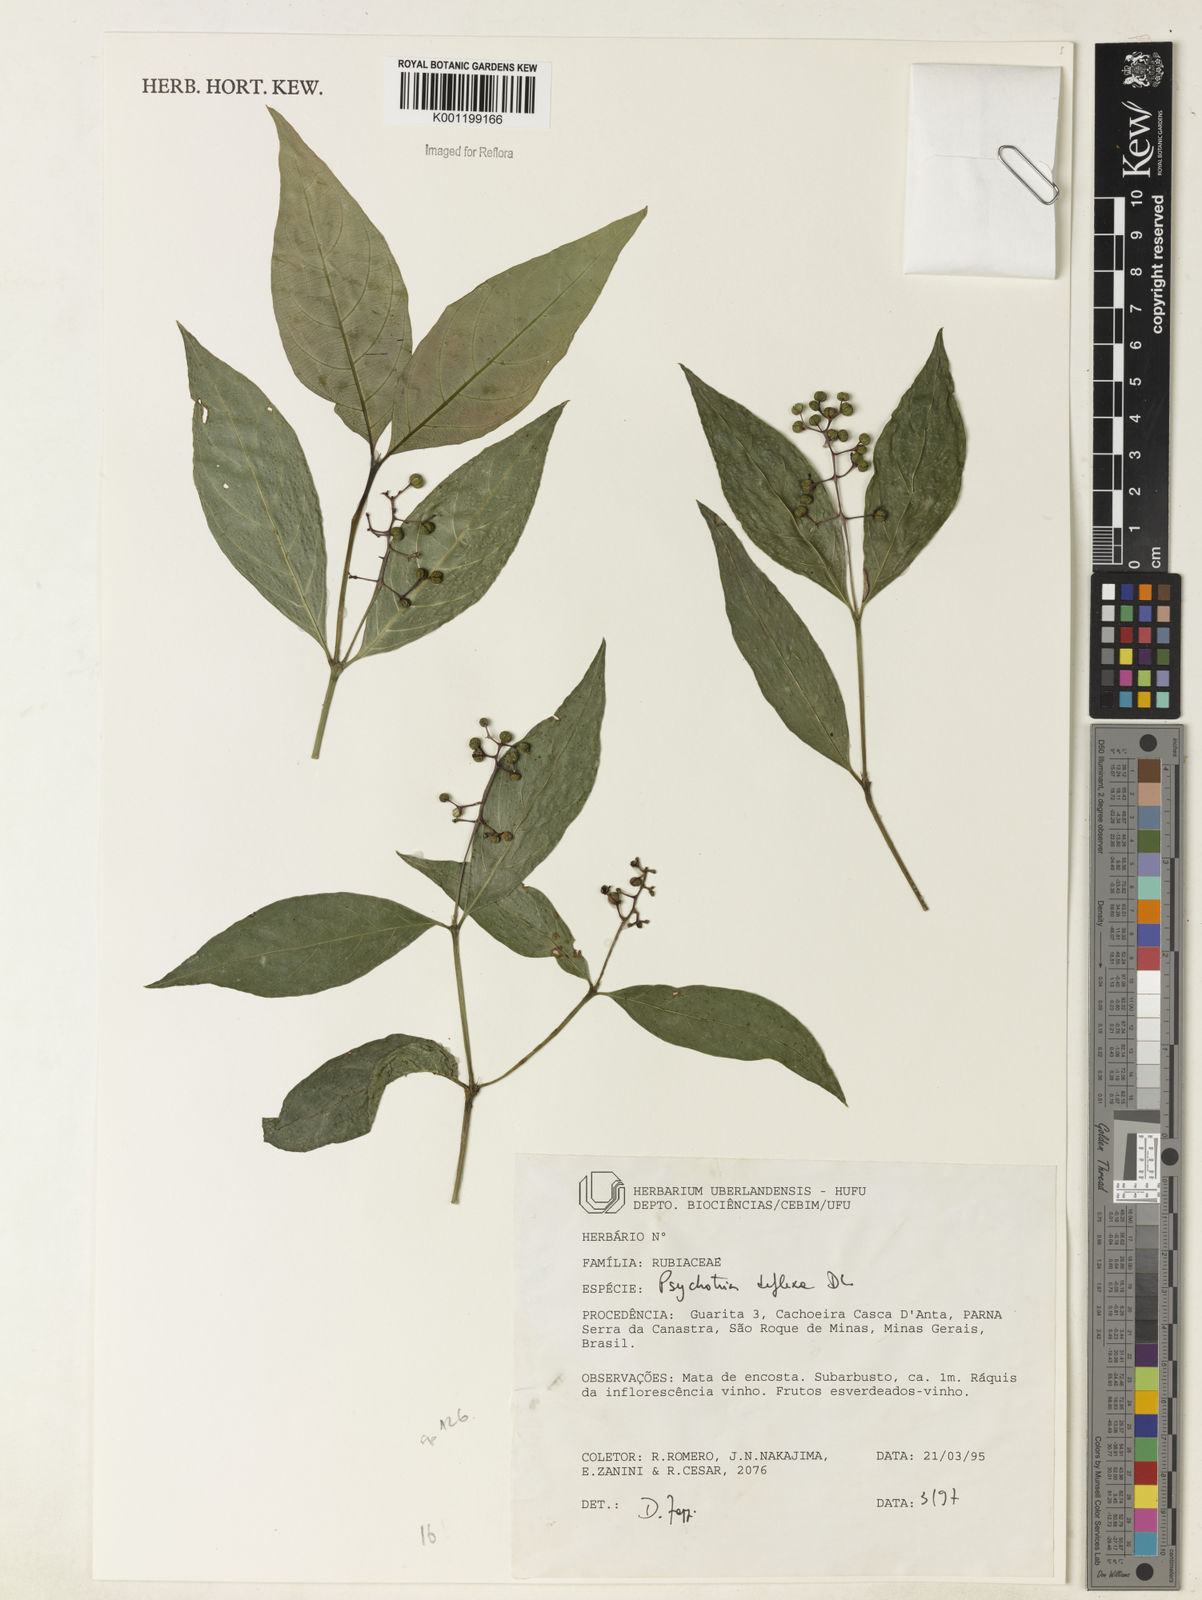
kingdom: Plantae
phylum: Tracheophyta
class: Magnoliopsida
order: Gentianales
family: Rubiaceae
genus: Palicourea
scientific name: Palicourea deflexa
